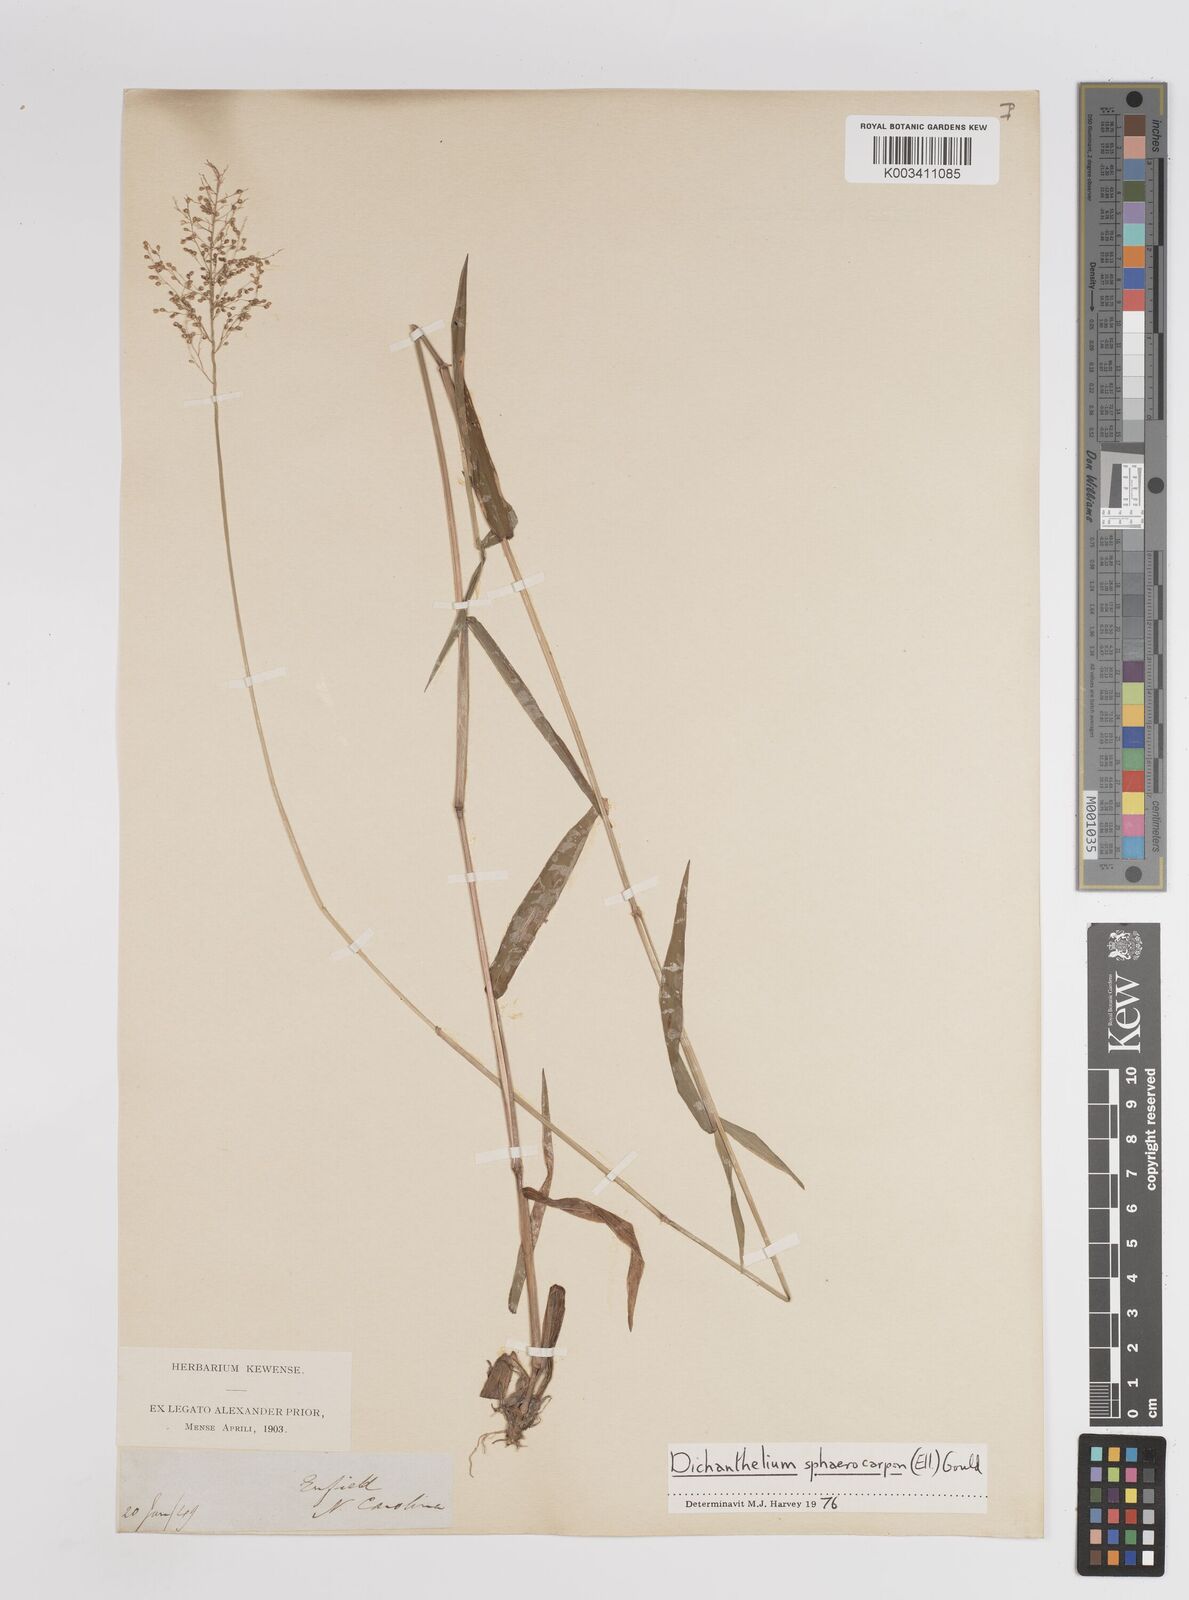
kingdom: Plantae
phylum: Tracheophyta
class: Liliopsida
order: Poales
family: Poaceae
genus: Dichanthelium
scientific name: Dichanthelium sphaerocarpon
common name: Round-fruited panicgrass
